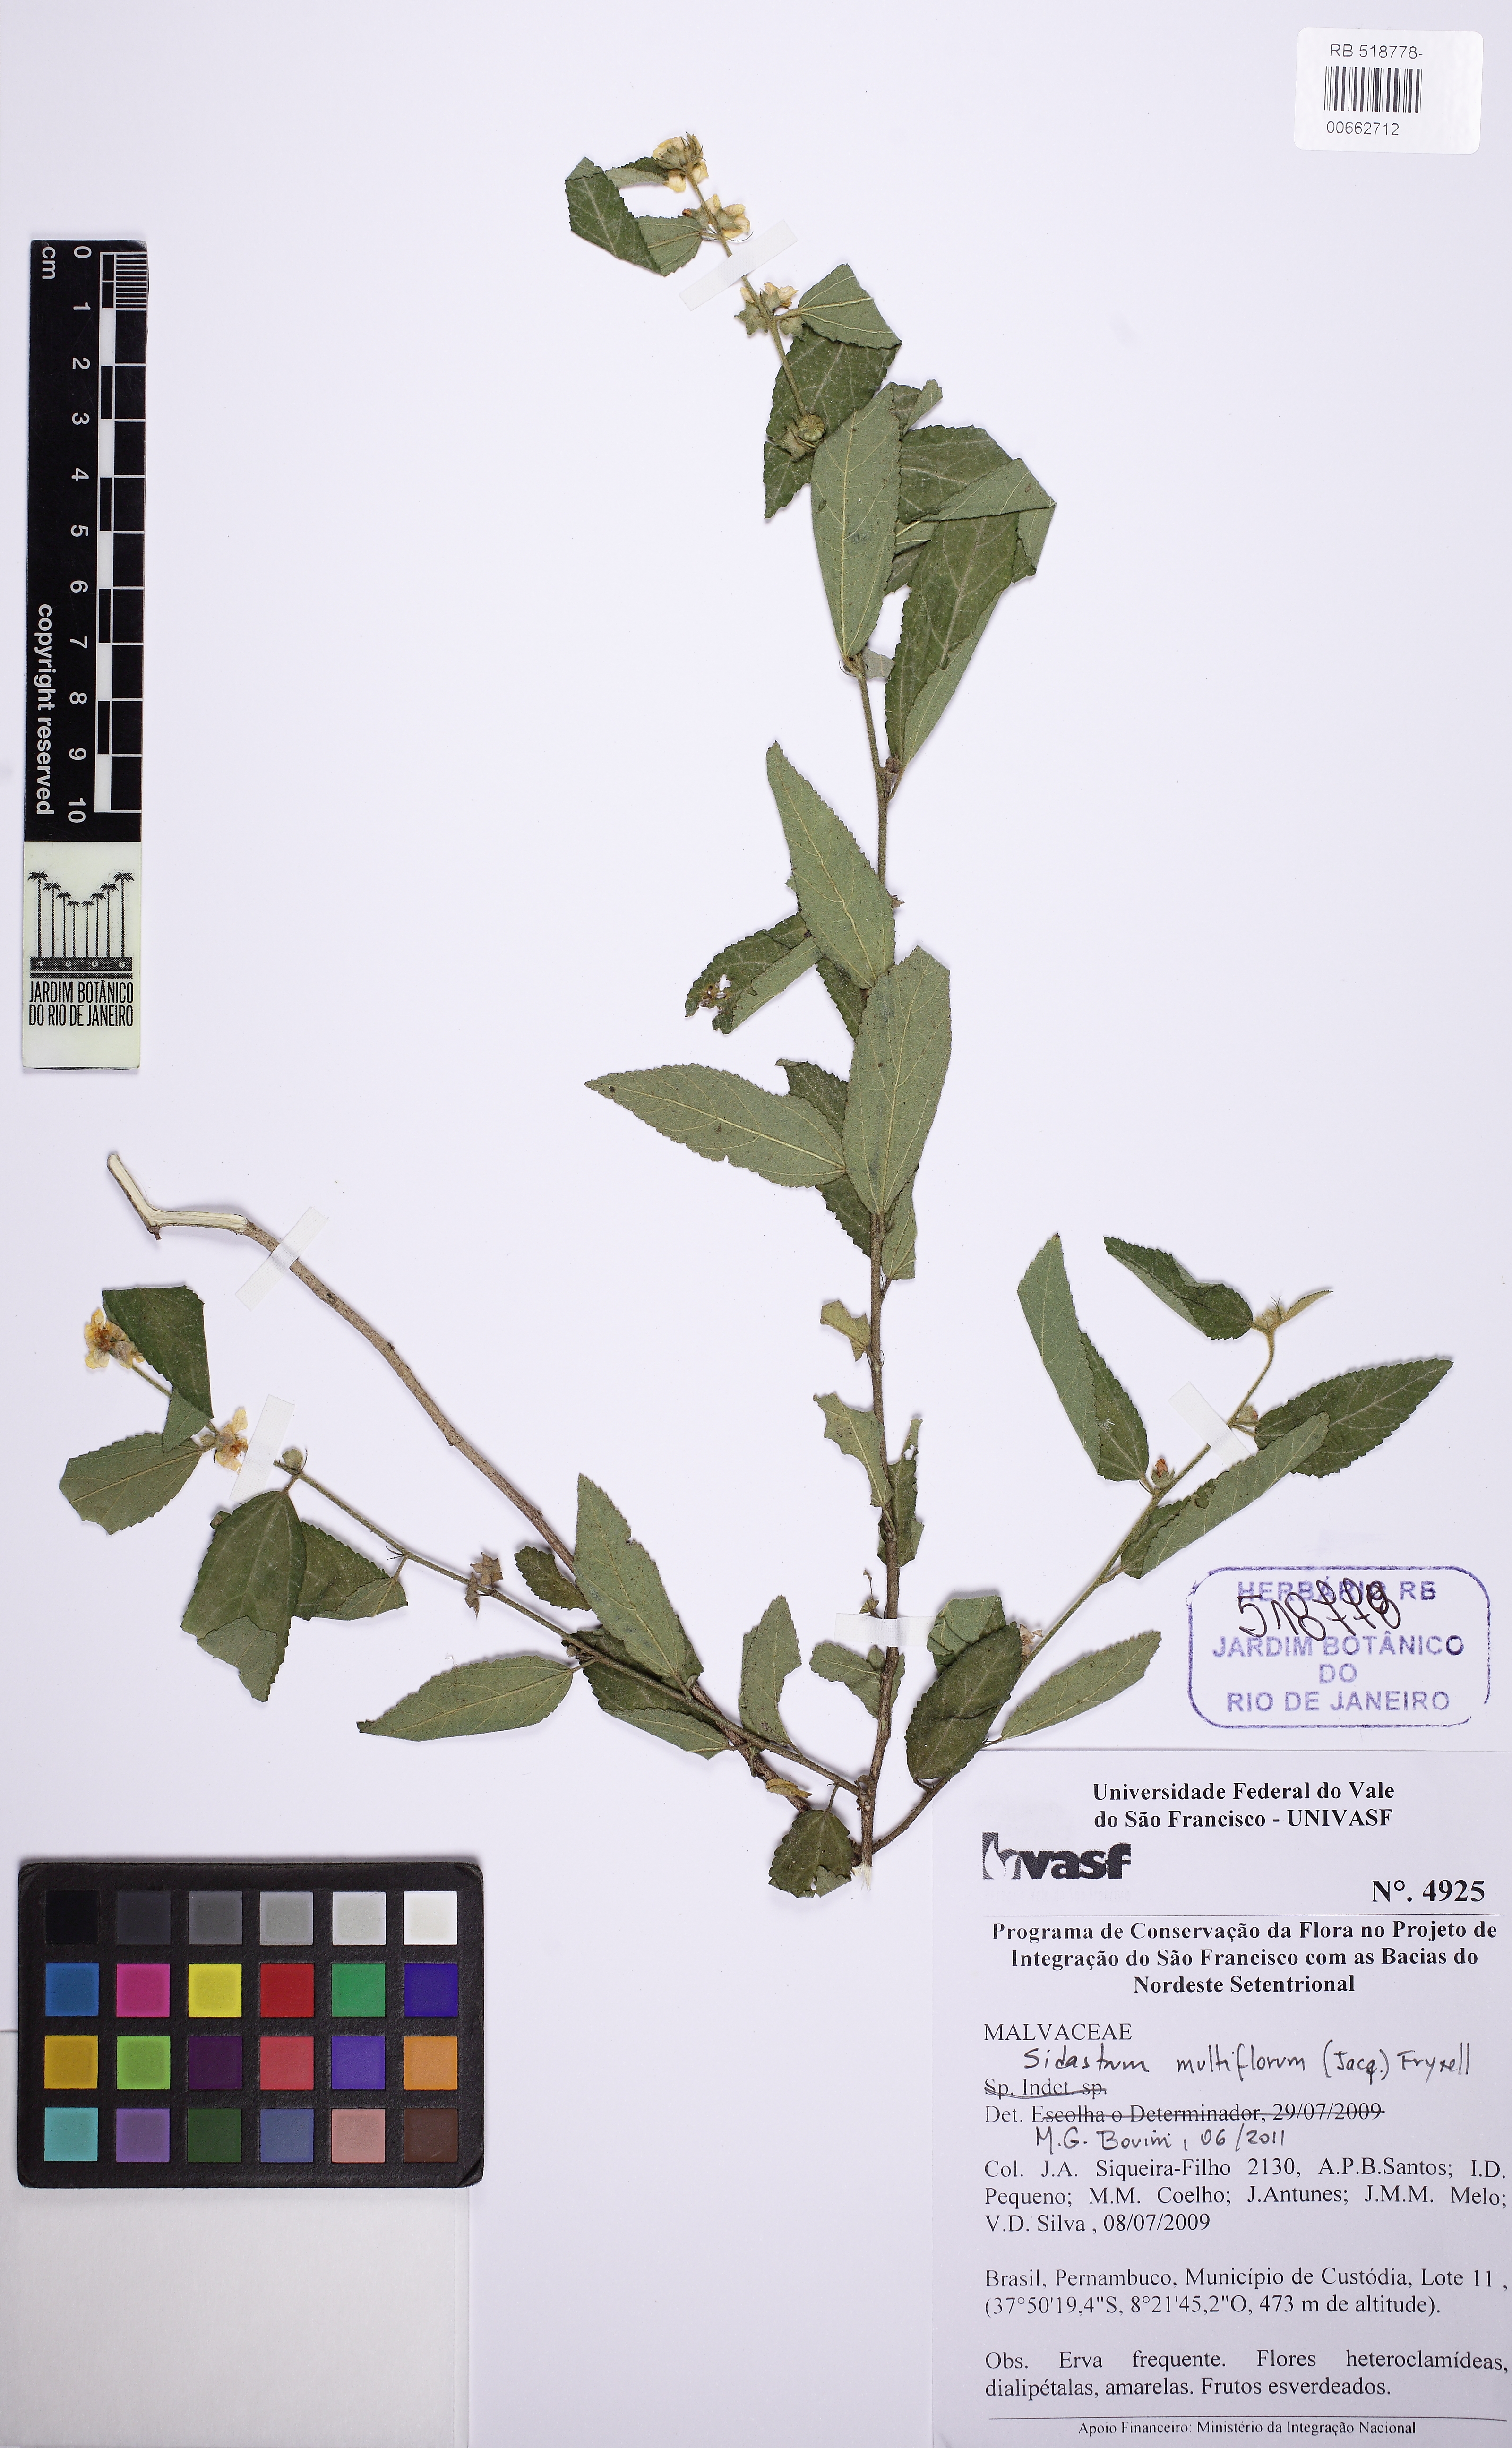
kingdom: Plantae
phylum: Tracheophyta
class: Magnoliopsida
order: Malvales
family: Malvaceae
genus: Sidastrum
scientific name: Sidastrum multiflorum
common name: Manyflower sandmallow
